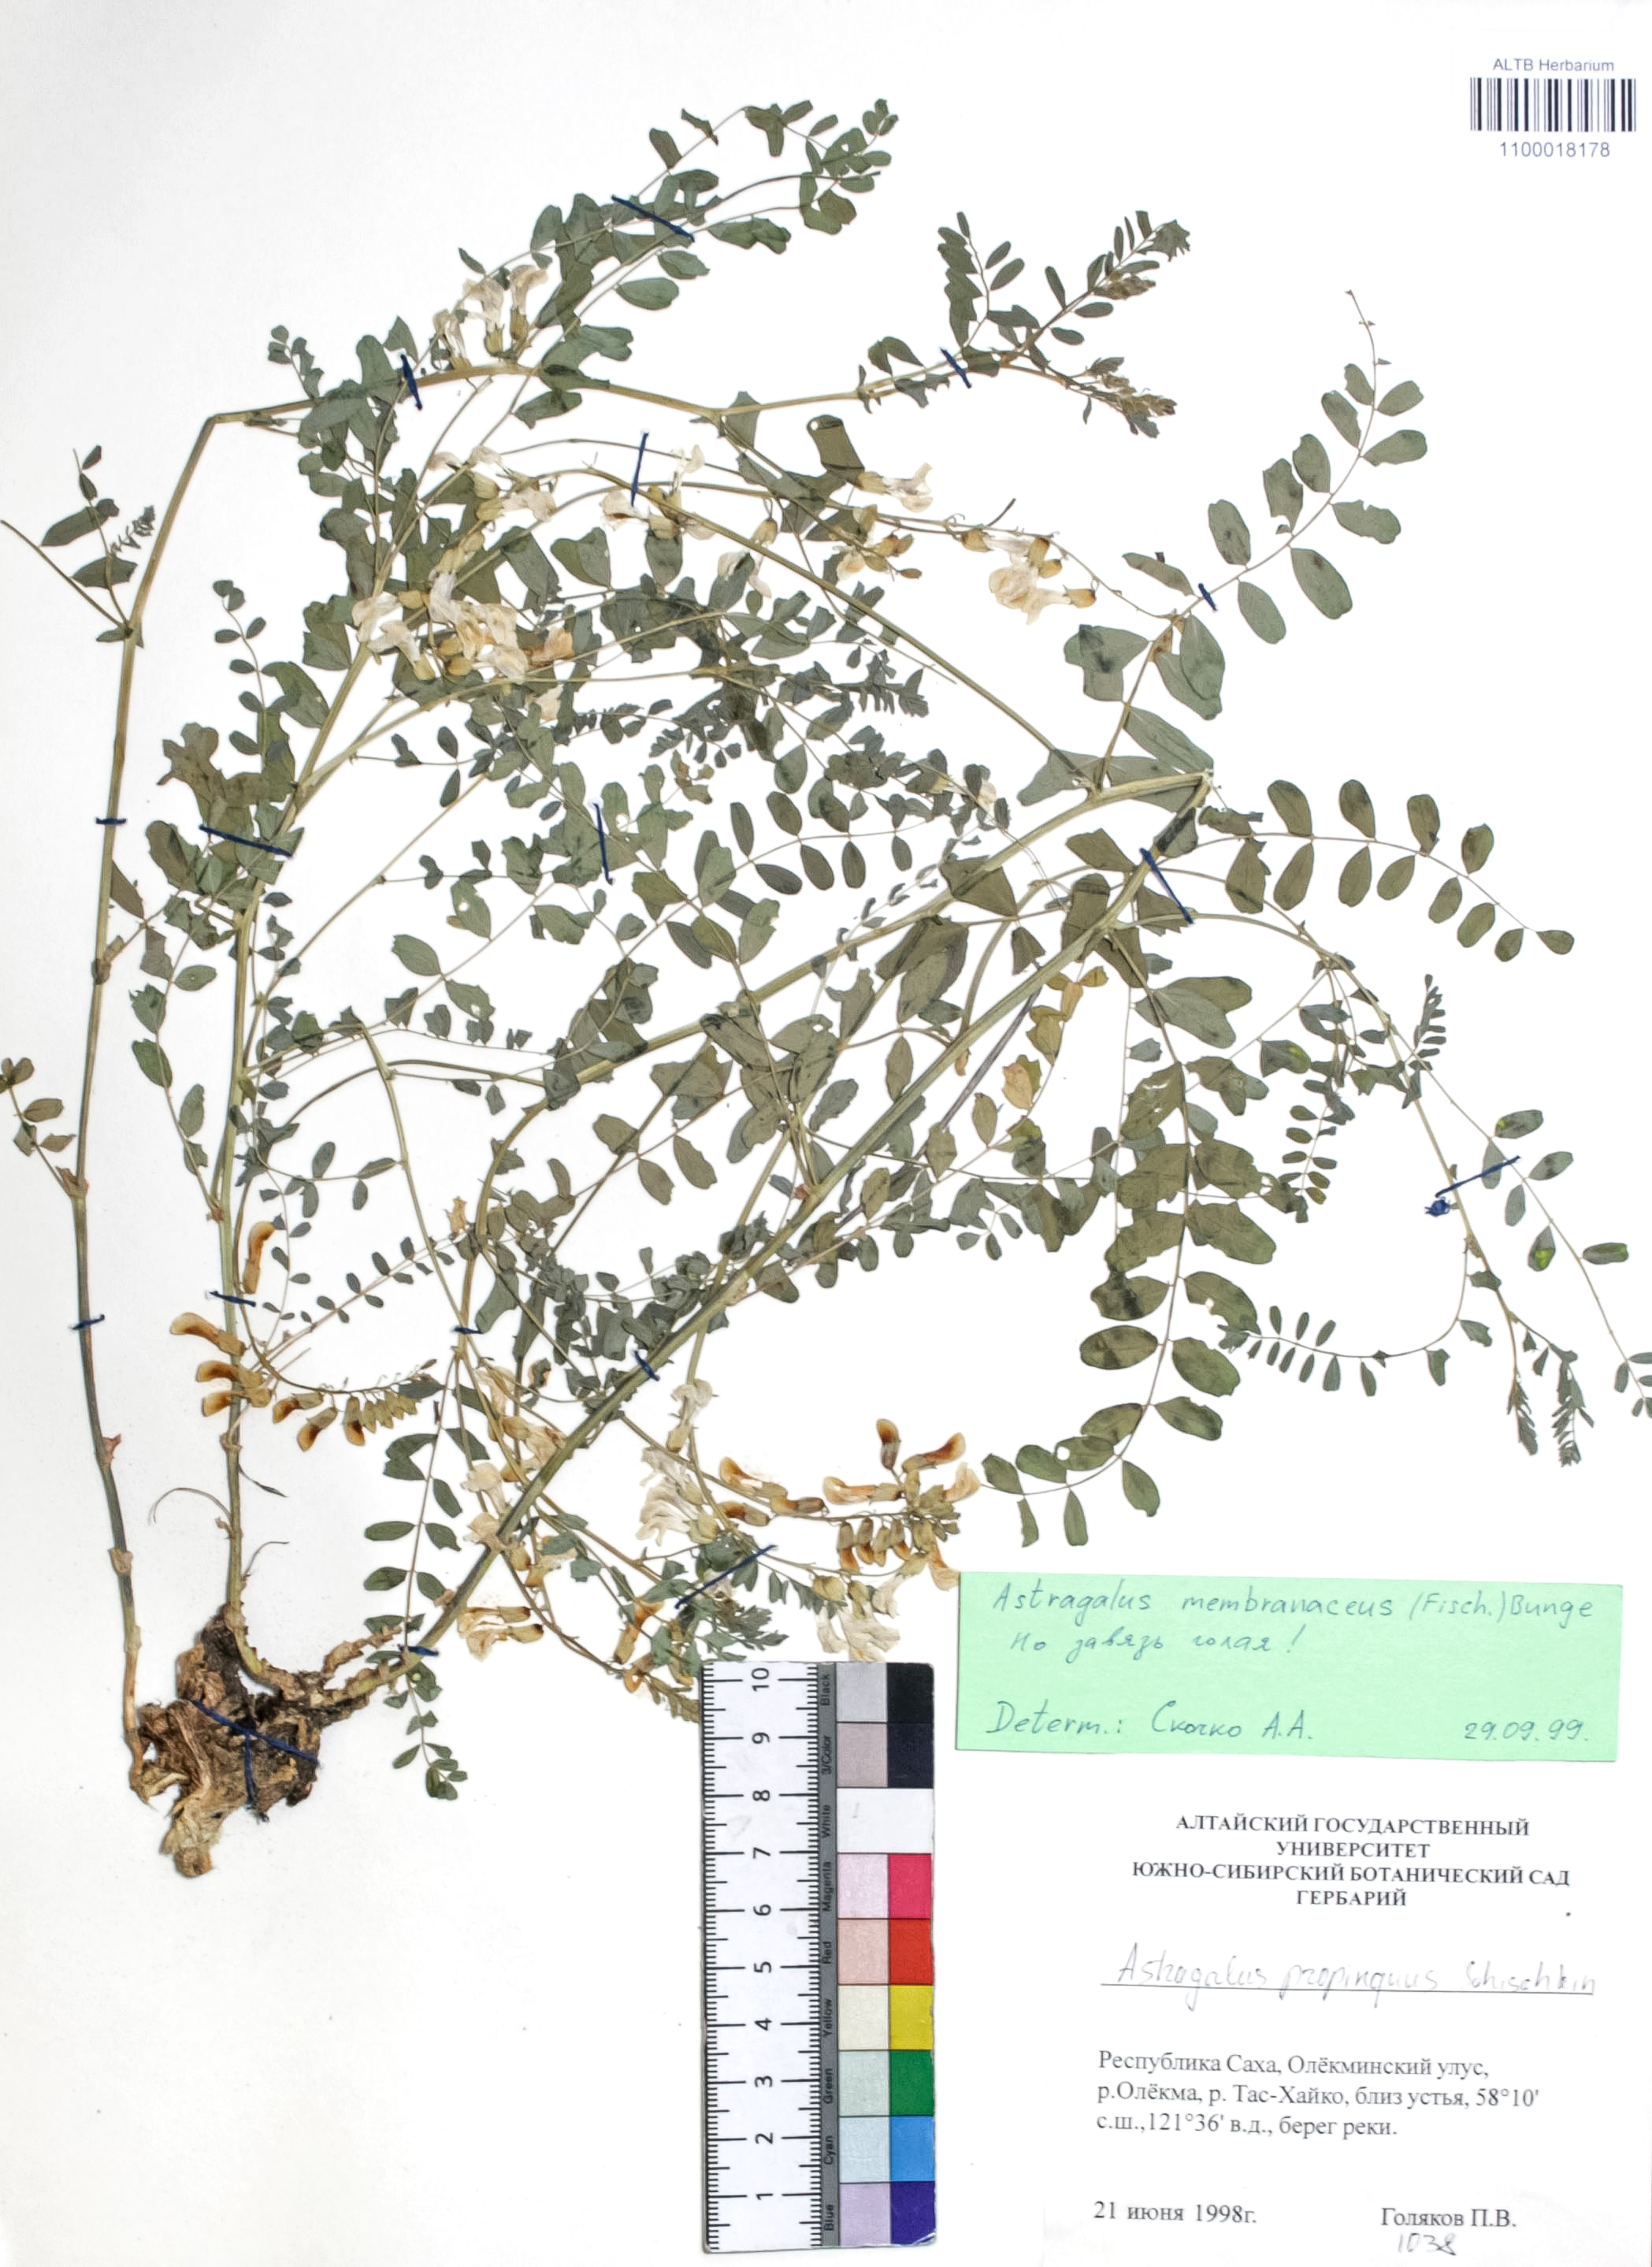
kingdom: Plantae
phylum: Tracheophyta
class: Magnoliopsida
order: Fabales
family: Fabaceae
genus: Astragalus
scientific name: Astragalus mongholicus
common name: Membranous milk-vetch
